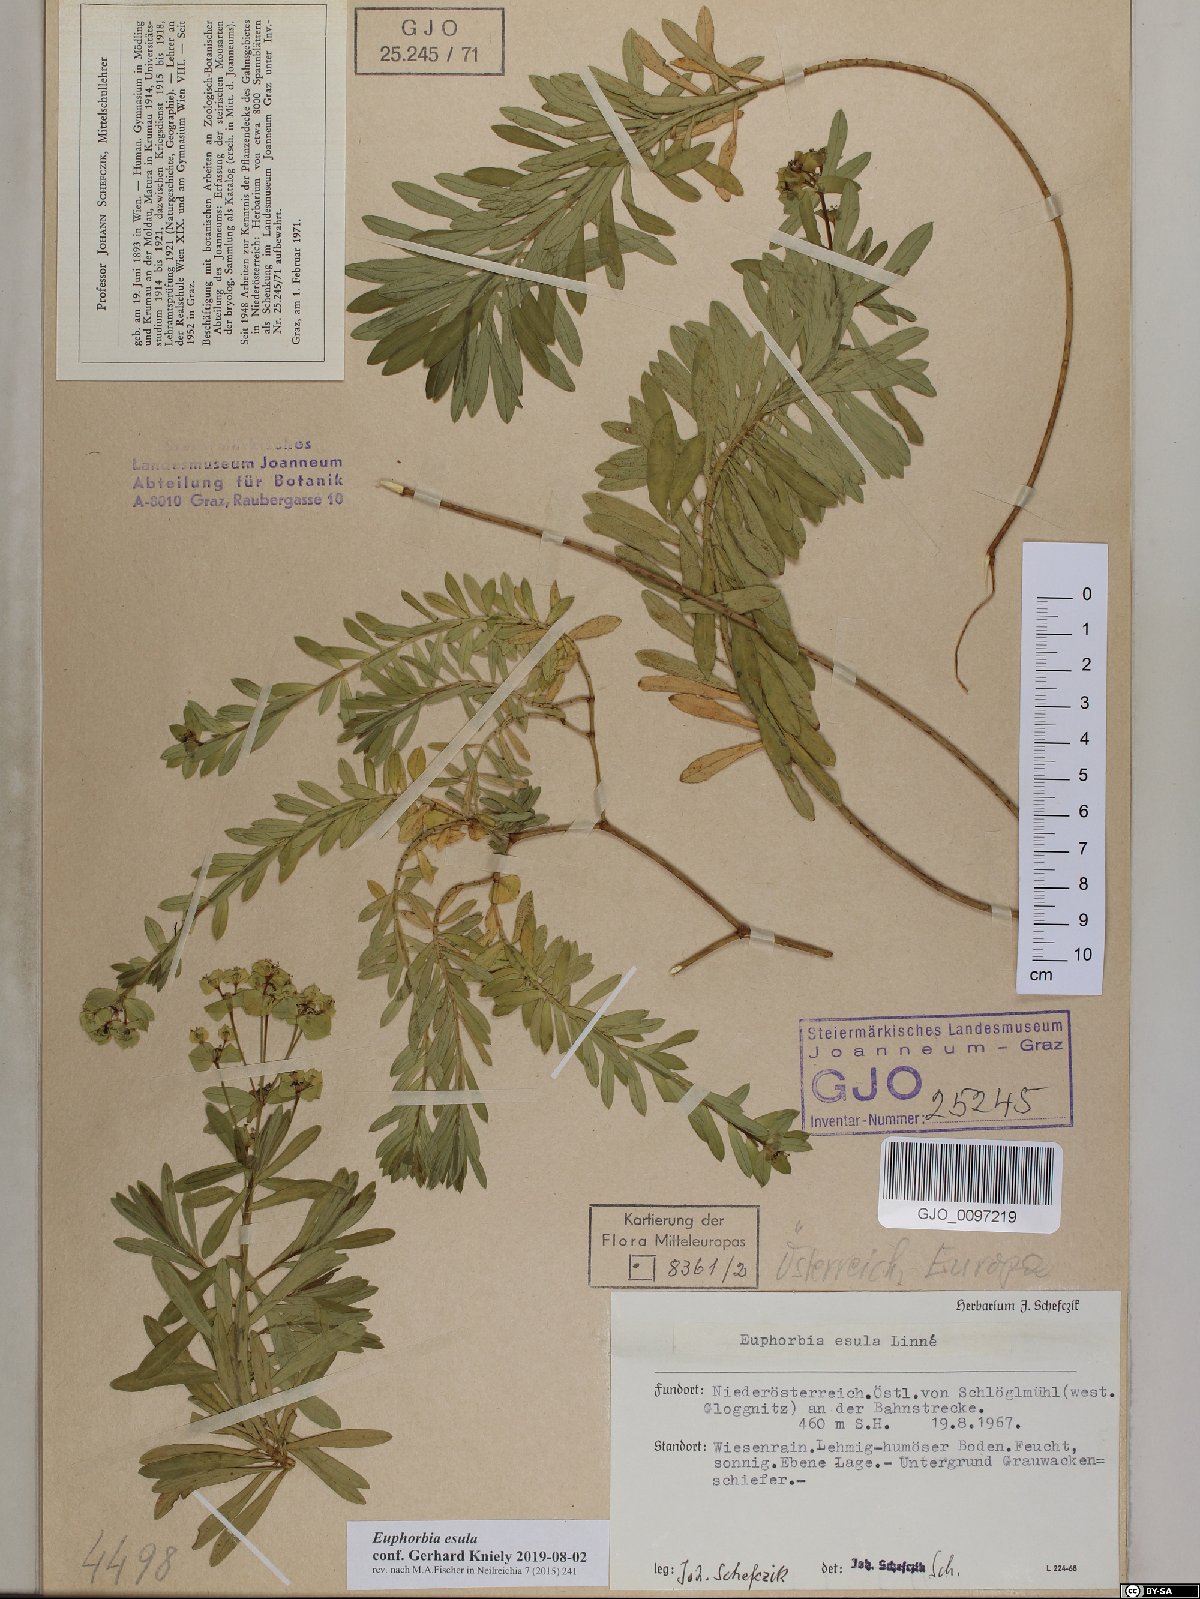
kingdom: Plantae
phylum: Tracheophyta
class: Magnoliopsida
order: Malpighiales
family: Euphorbiaceae
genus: Euphorbia
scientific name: Euphorbia esula
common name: Leafy spurge
